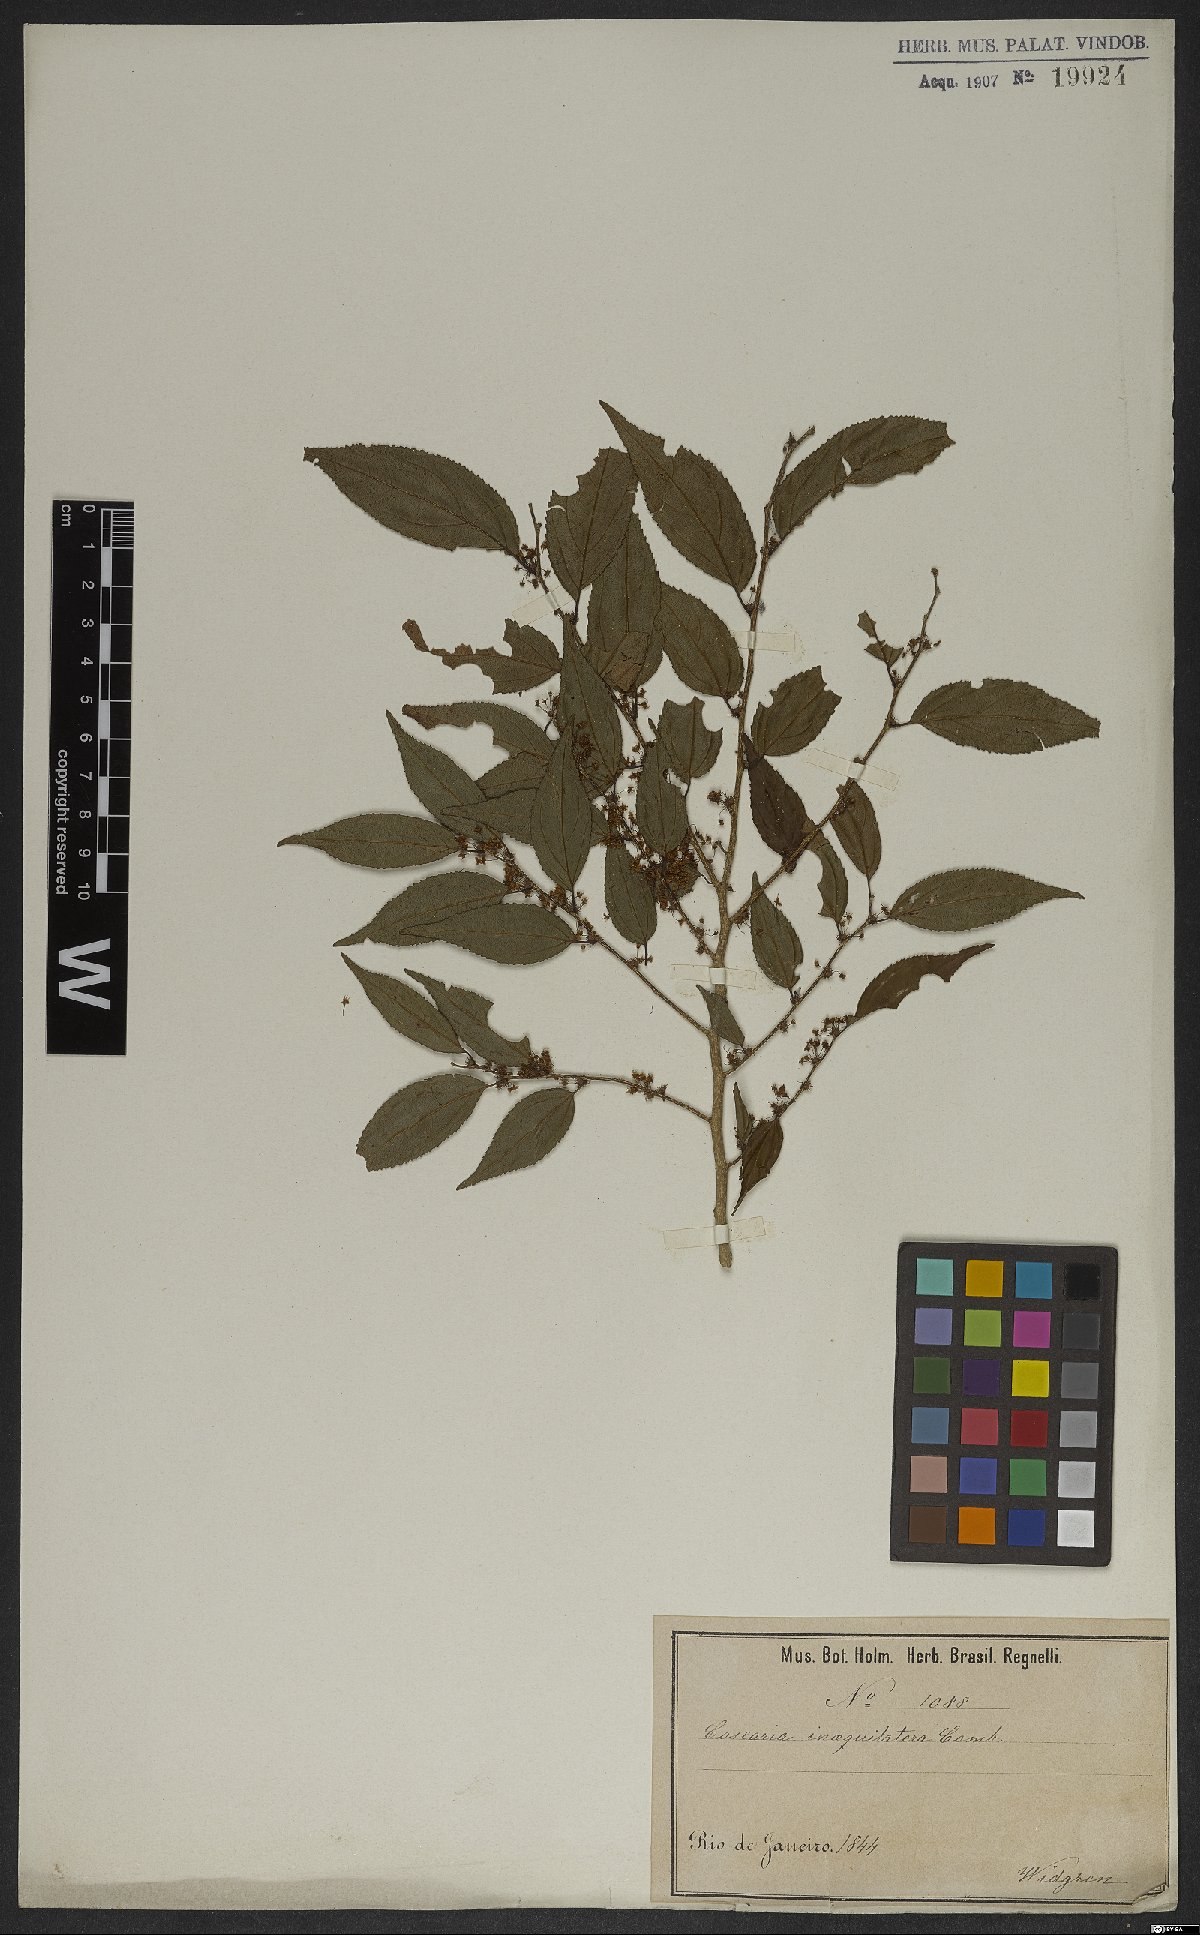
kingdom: Plantae
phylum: Tracheophyta
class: Magnoliopsida
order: Malpighiales
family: Salicaceae
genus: Casearia
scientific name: Casearia obliqua
